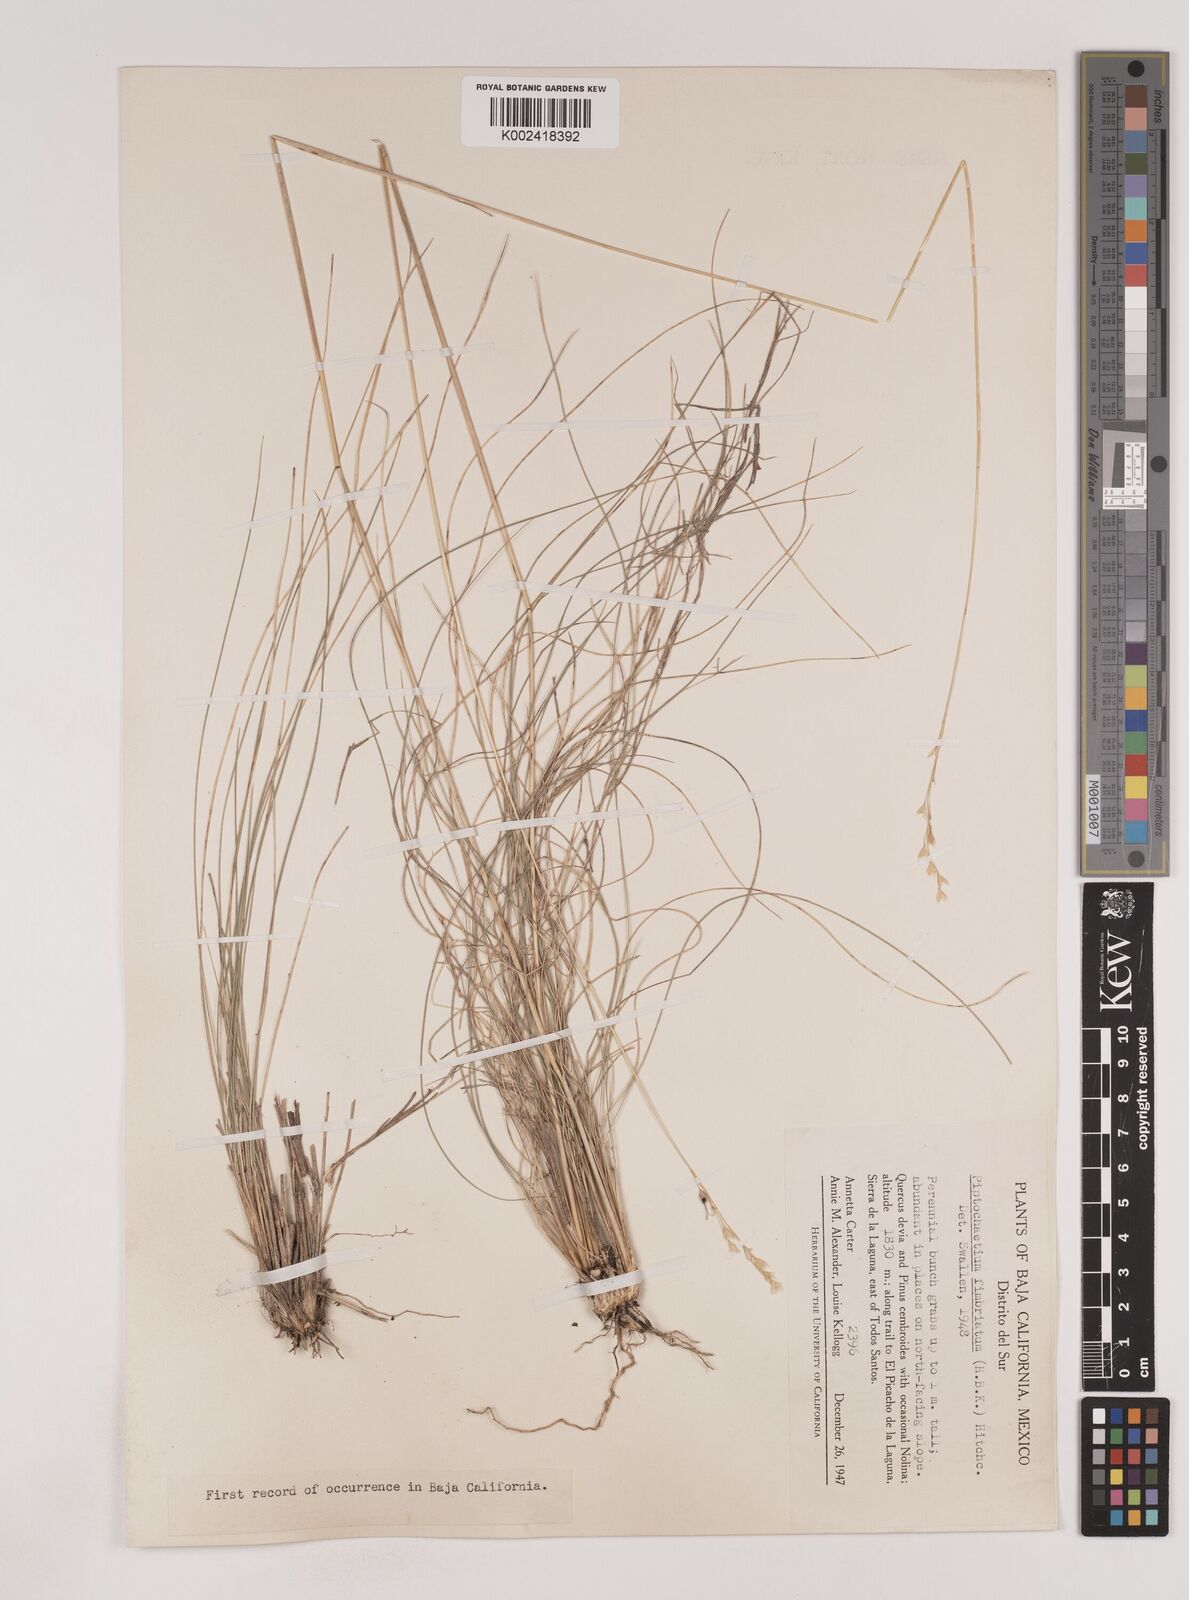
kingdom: Plantae
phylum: Tracheophyta
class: Liliopsida
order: Poales
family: Poaceae
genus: Piptochaetium
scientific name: Piptochaetium fimbriatum
